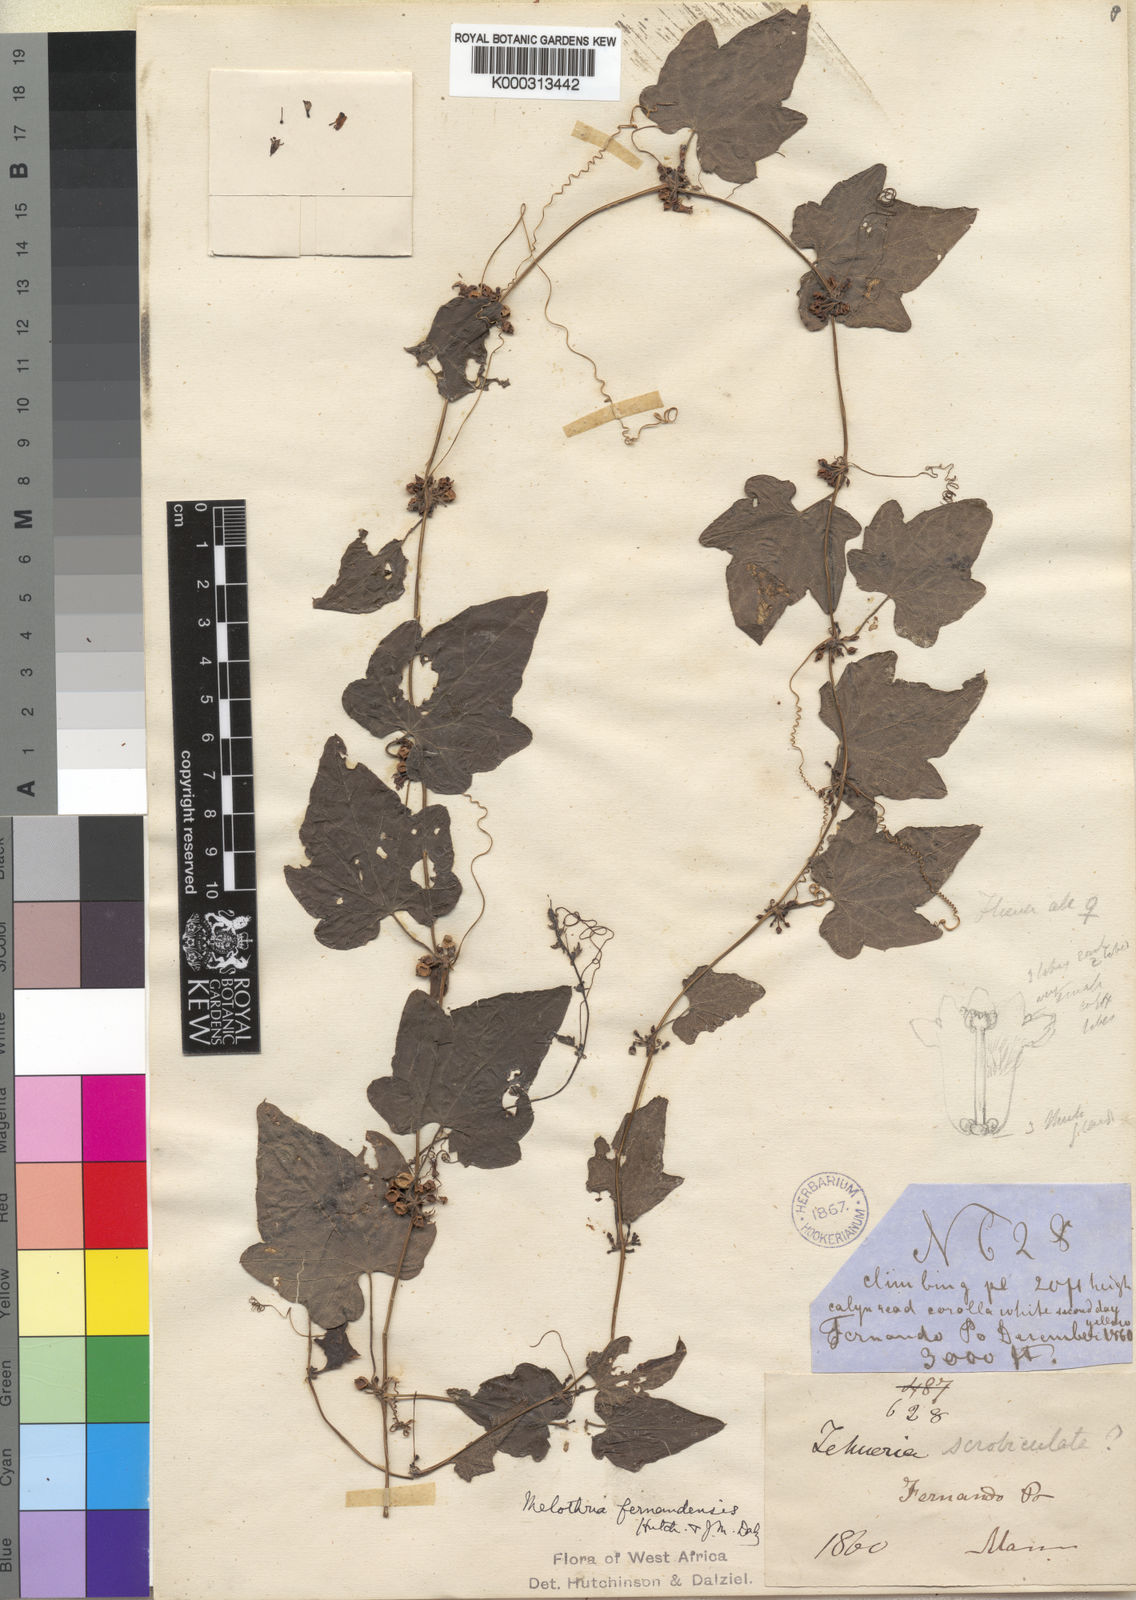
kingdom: Plantae
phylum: Tracheophyta
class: Magnoliopsida
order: Cucurbitales
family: Cucurbitaceae
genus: Zehneria
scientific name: Zehneria scabra
